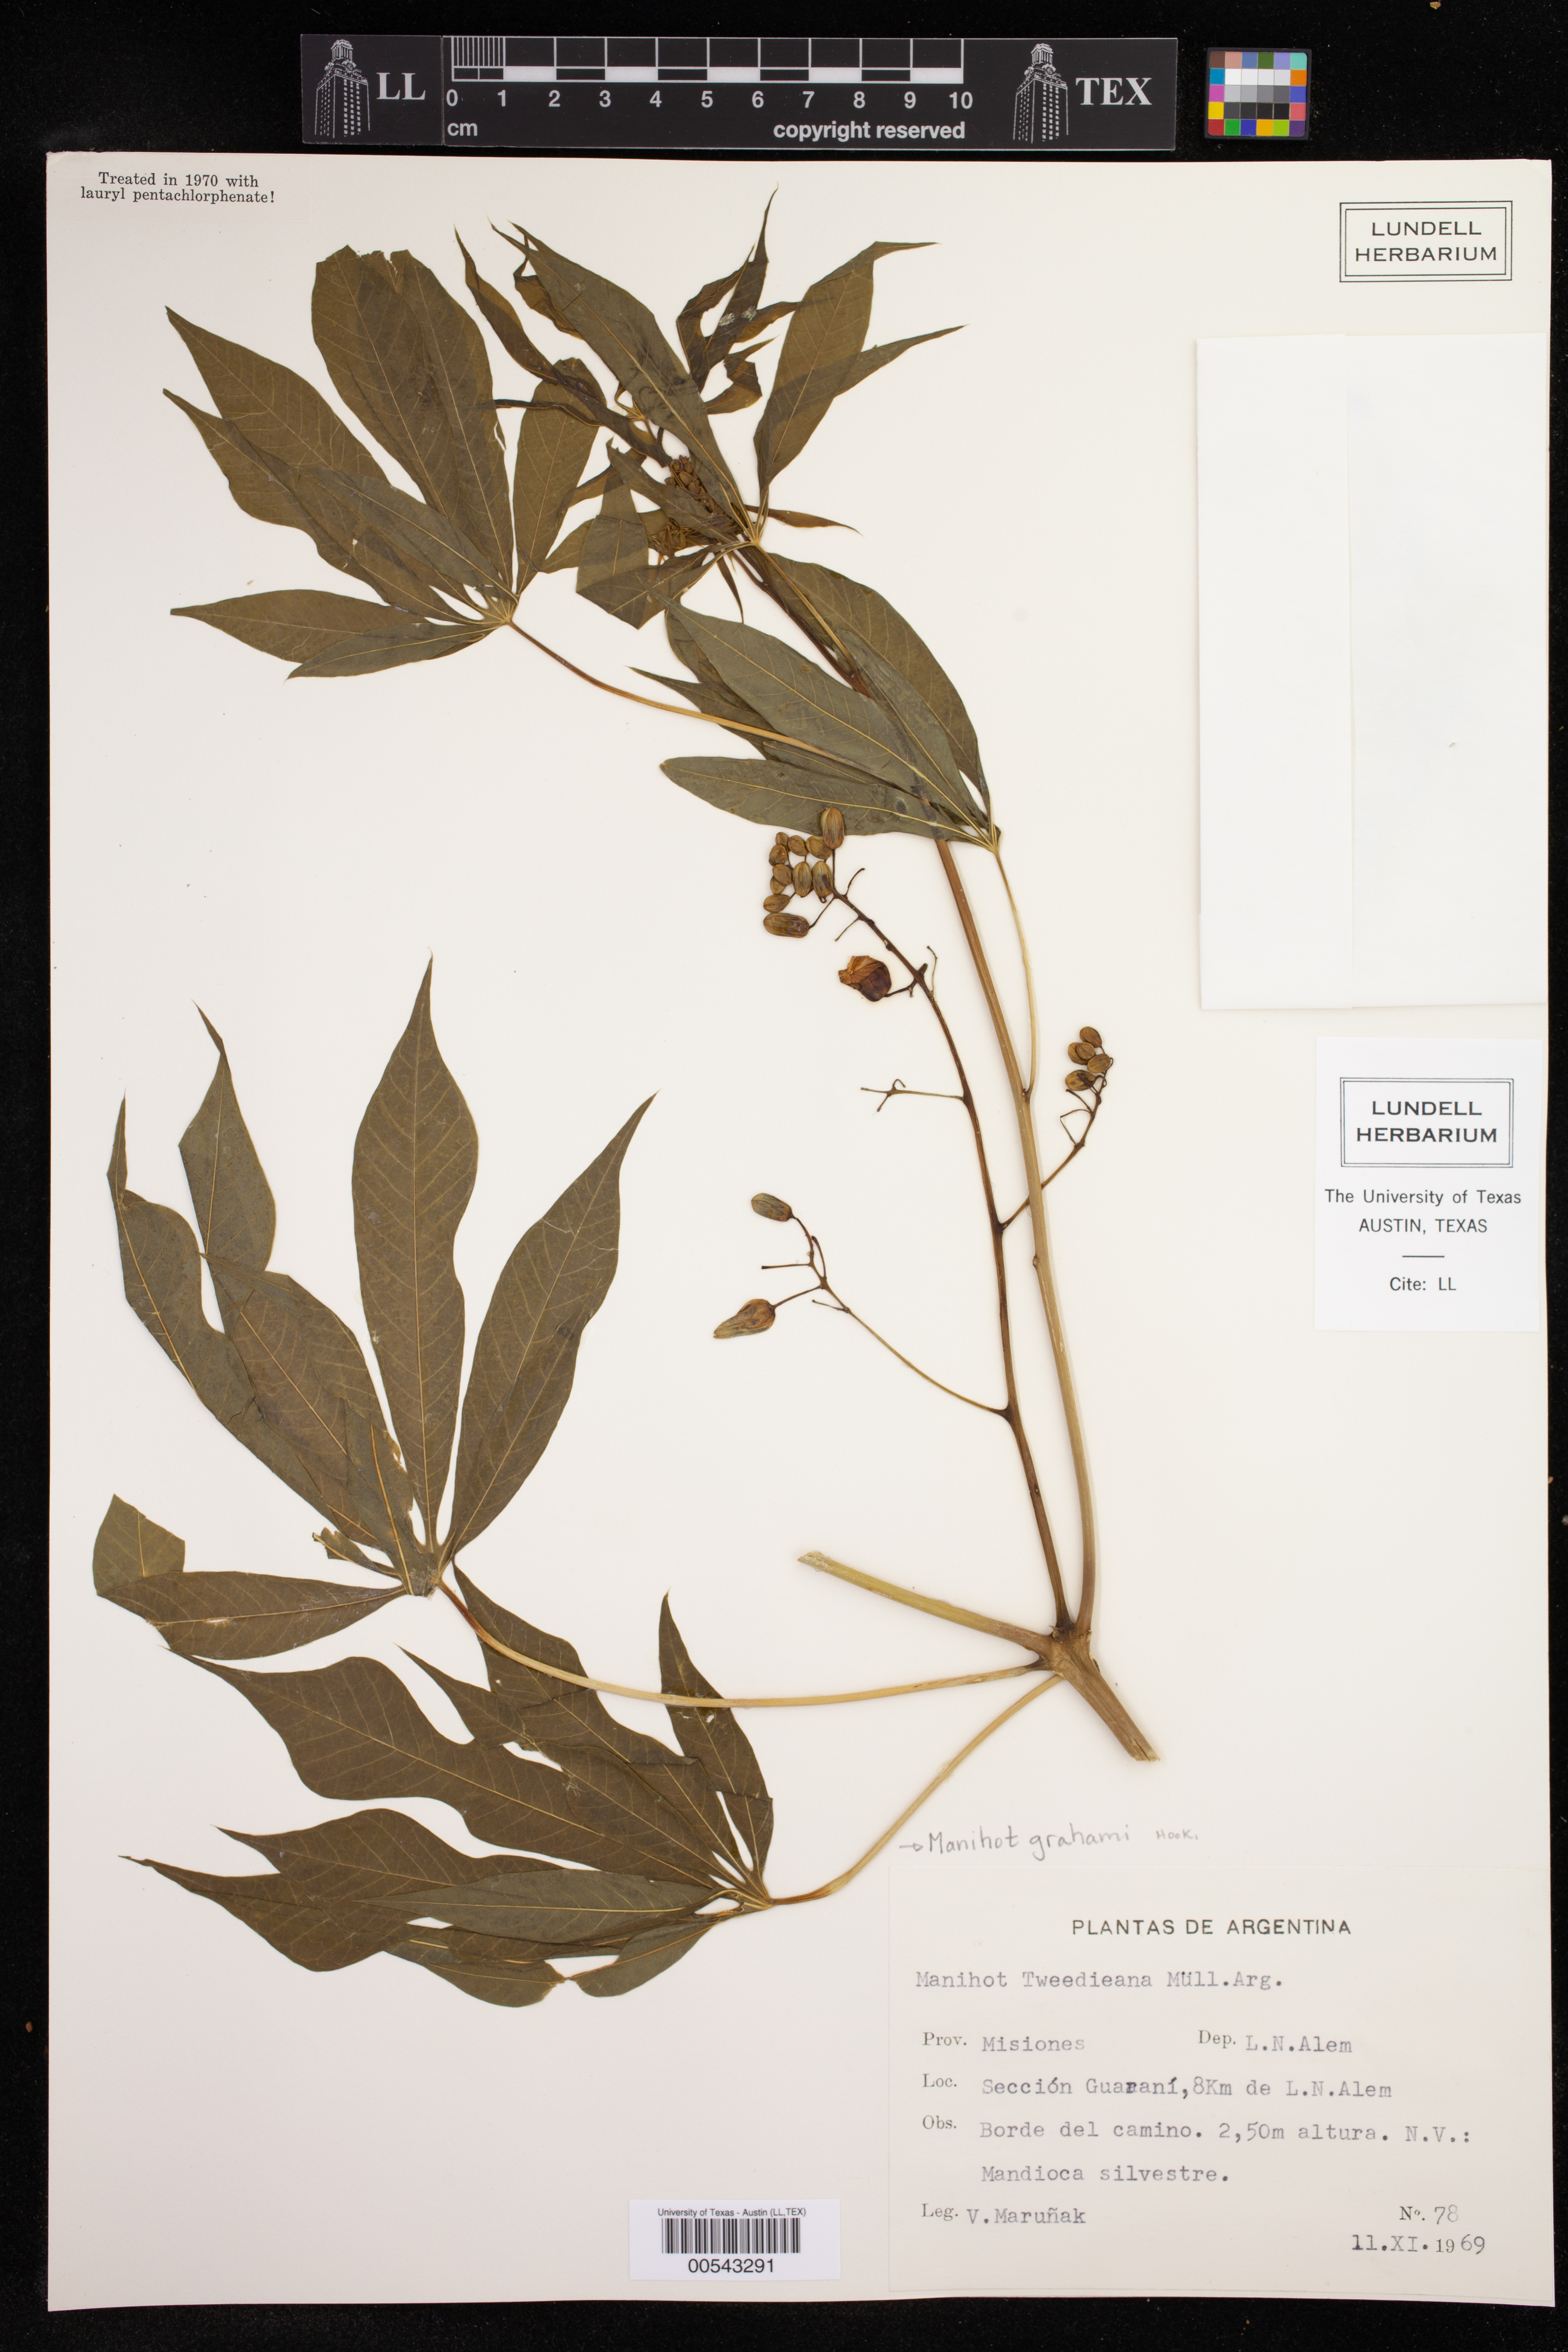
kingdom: Plantae
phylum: Tracheophyta
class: Magnoliopsida
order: Malpighiales
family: Euphorbiaceae
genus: Manihot
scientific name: Manihot grahamii
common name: Graham's manihot
